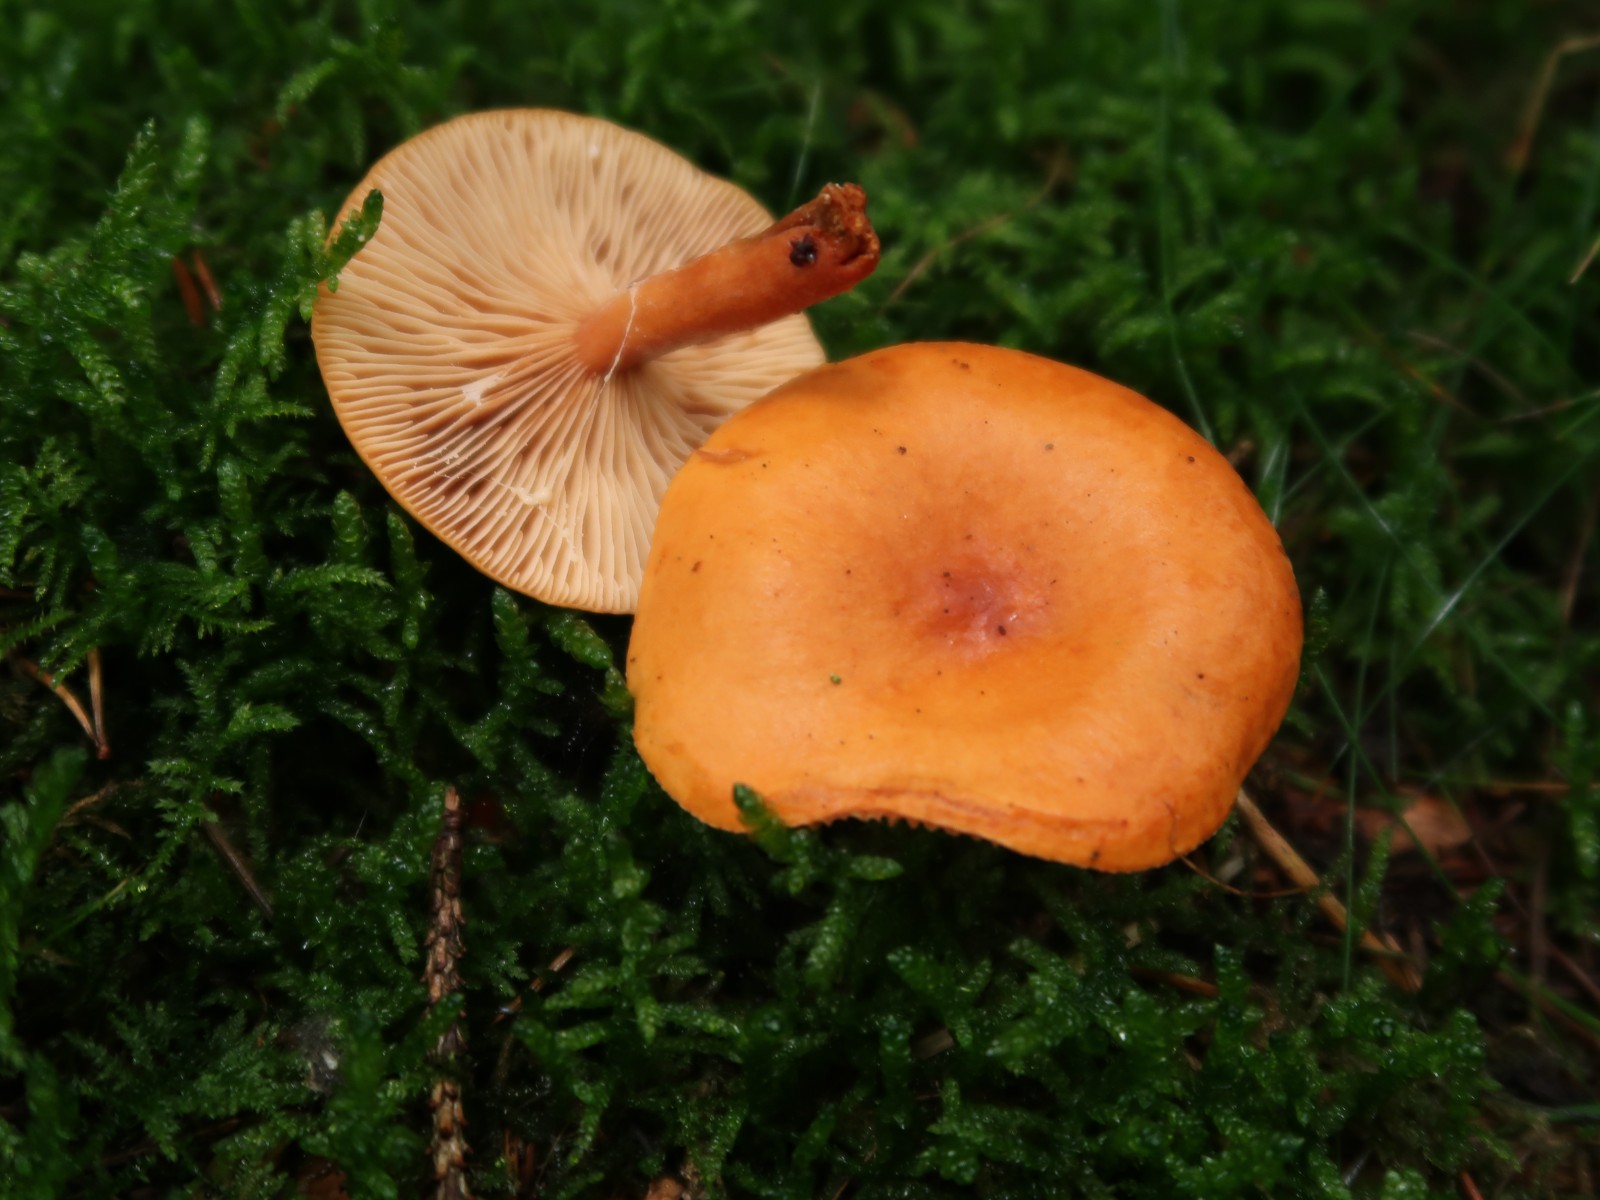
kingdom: Fungi
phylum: Basidiomycota
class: Agaricomycetes
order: Russulales
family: Russulaceae
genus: Lactarius
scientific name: Lactarius aurantiacus
